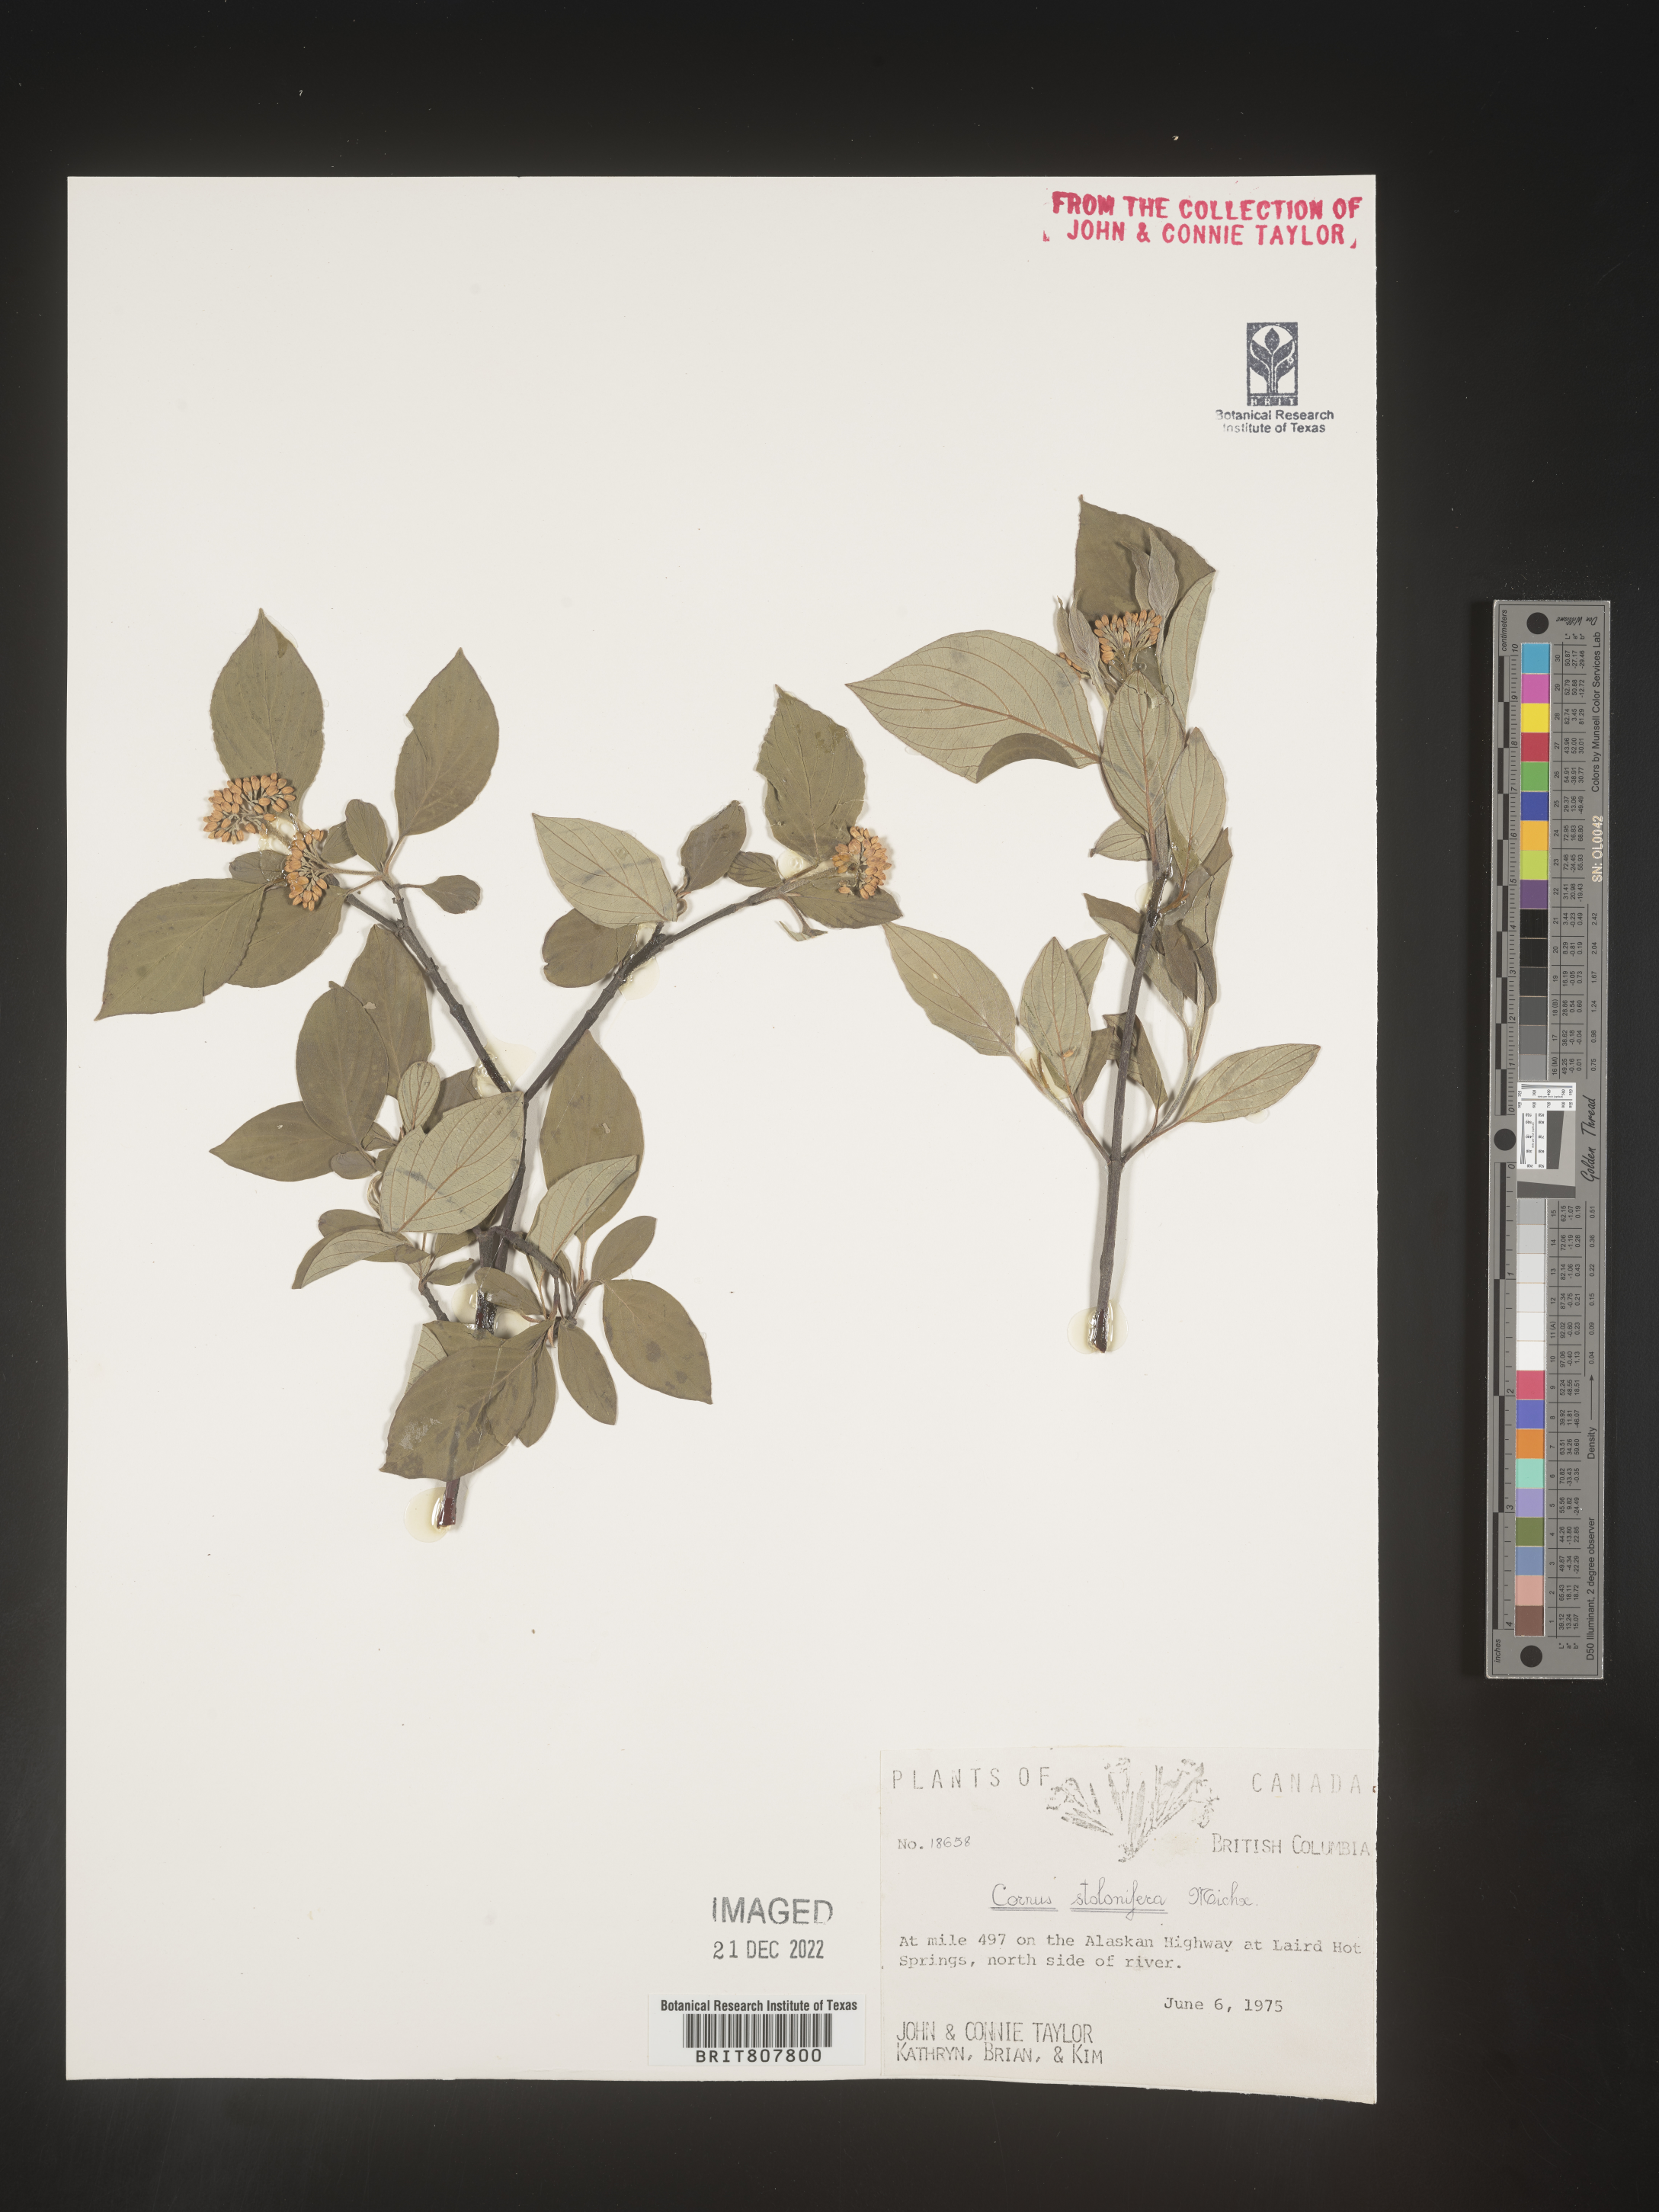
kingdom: Plantae
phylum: Tracheophyta
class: Magnoliopsida
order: Cornales
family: Cornaceae
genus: Cornus
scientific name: Cornus sericea
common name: Red-osier dogwood
